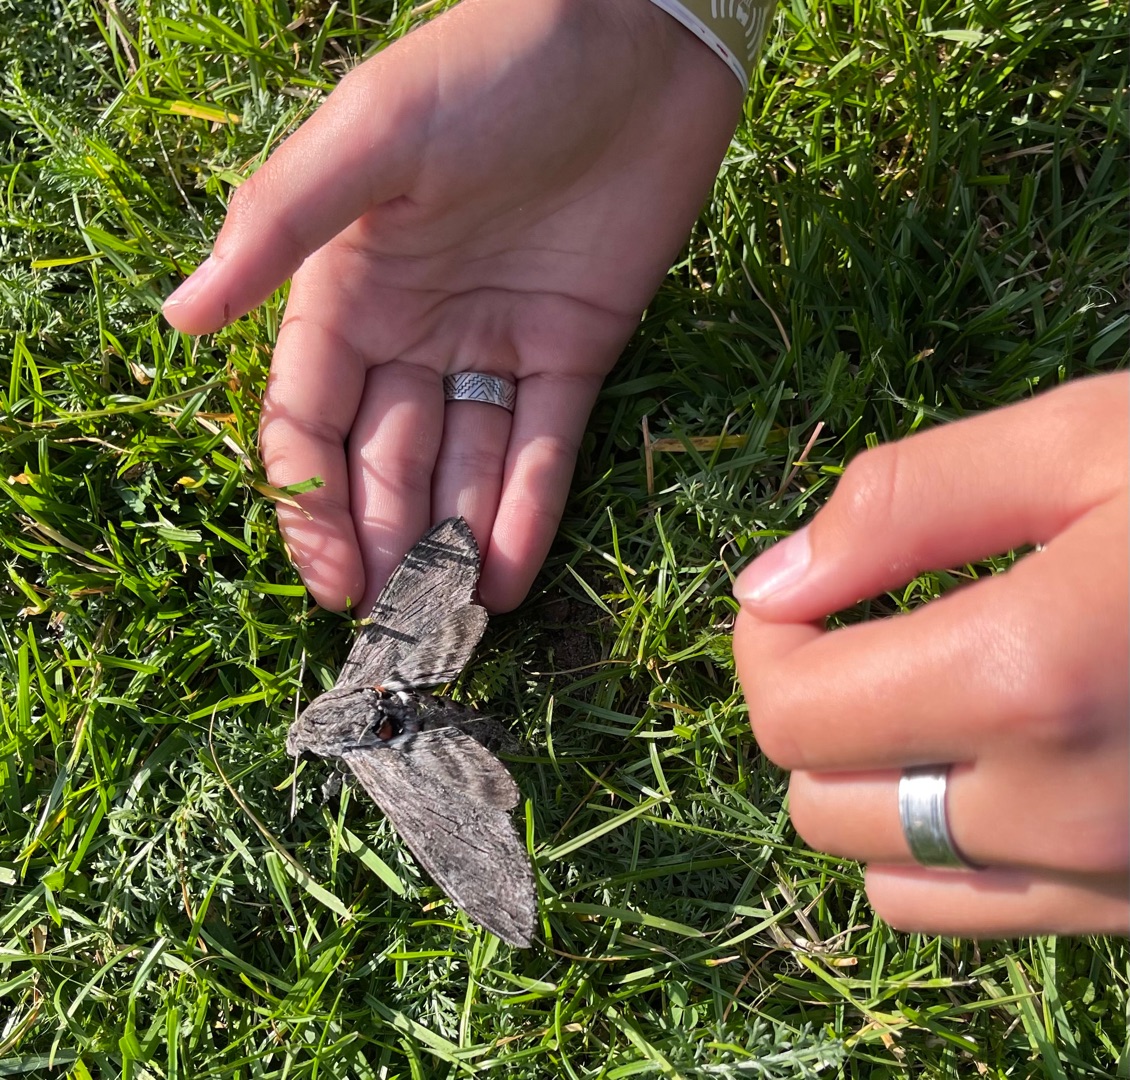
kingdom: Animalia
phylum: Arthropoda
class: Insecta
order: Lepidoptera
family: Sphingidae
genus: Agrius
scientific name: Agrius convolvuli
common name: Snerlesværmer
